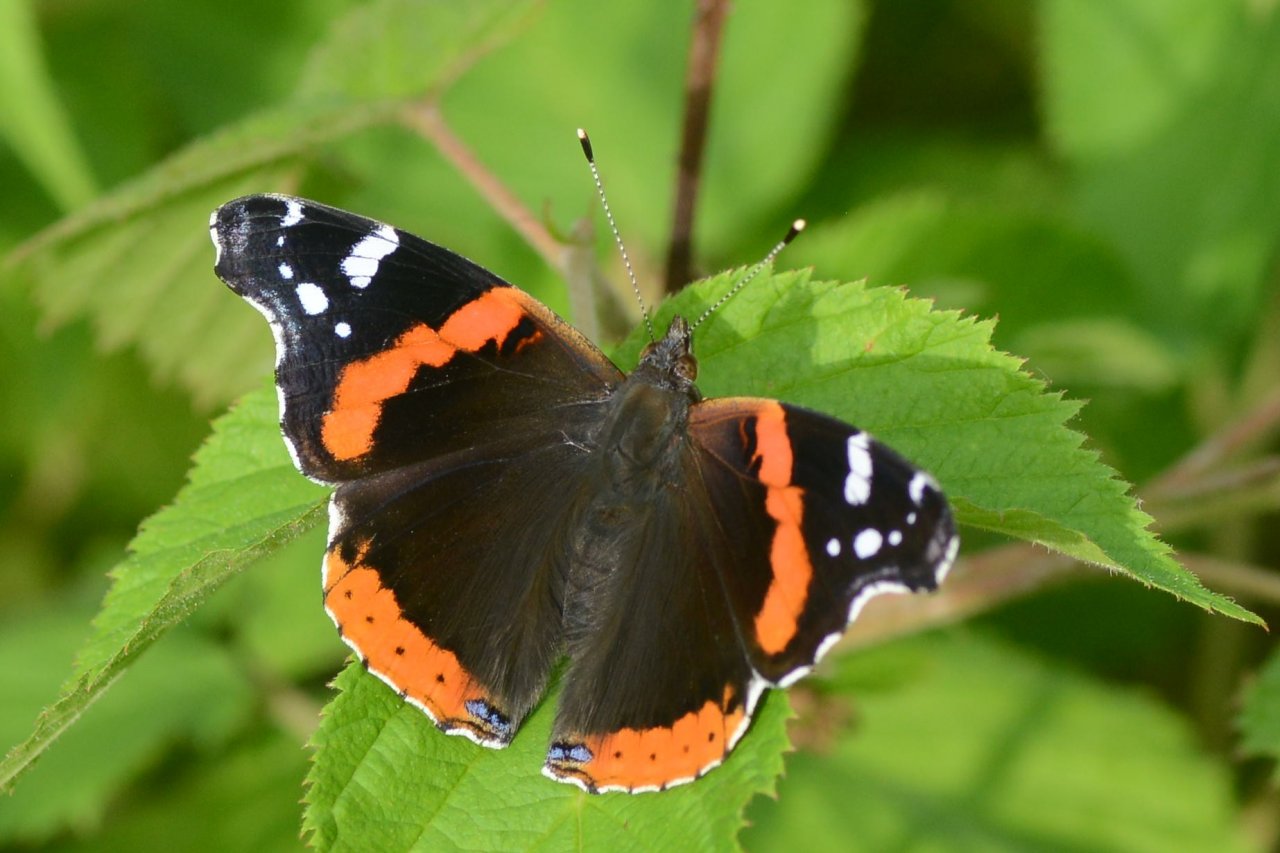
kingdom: Animalia
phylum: Arthropoda
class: Insecta
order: Lepidoptera
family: Nymphalidae
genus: Vanessa
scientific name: Vanessa atalanta
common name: Red Admiral
